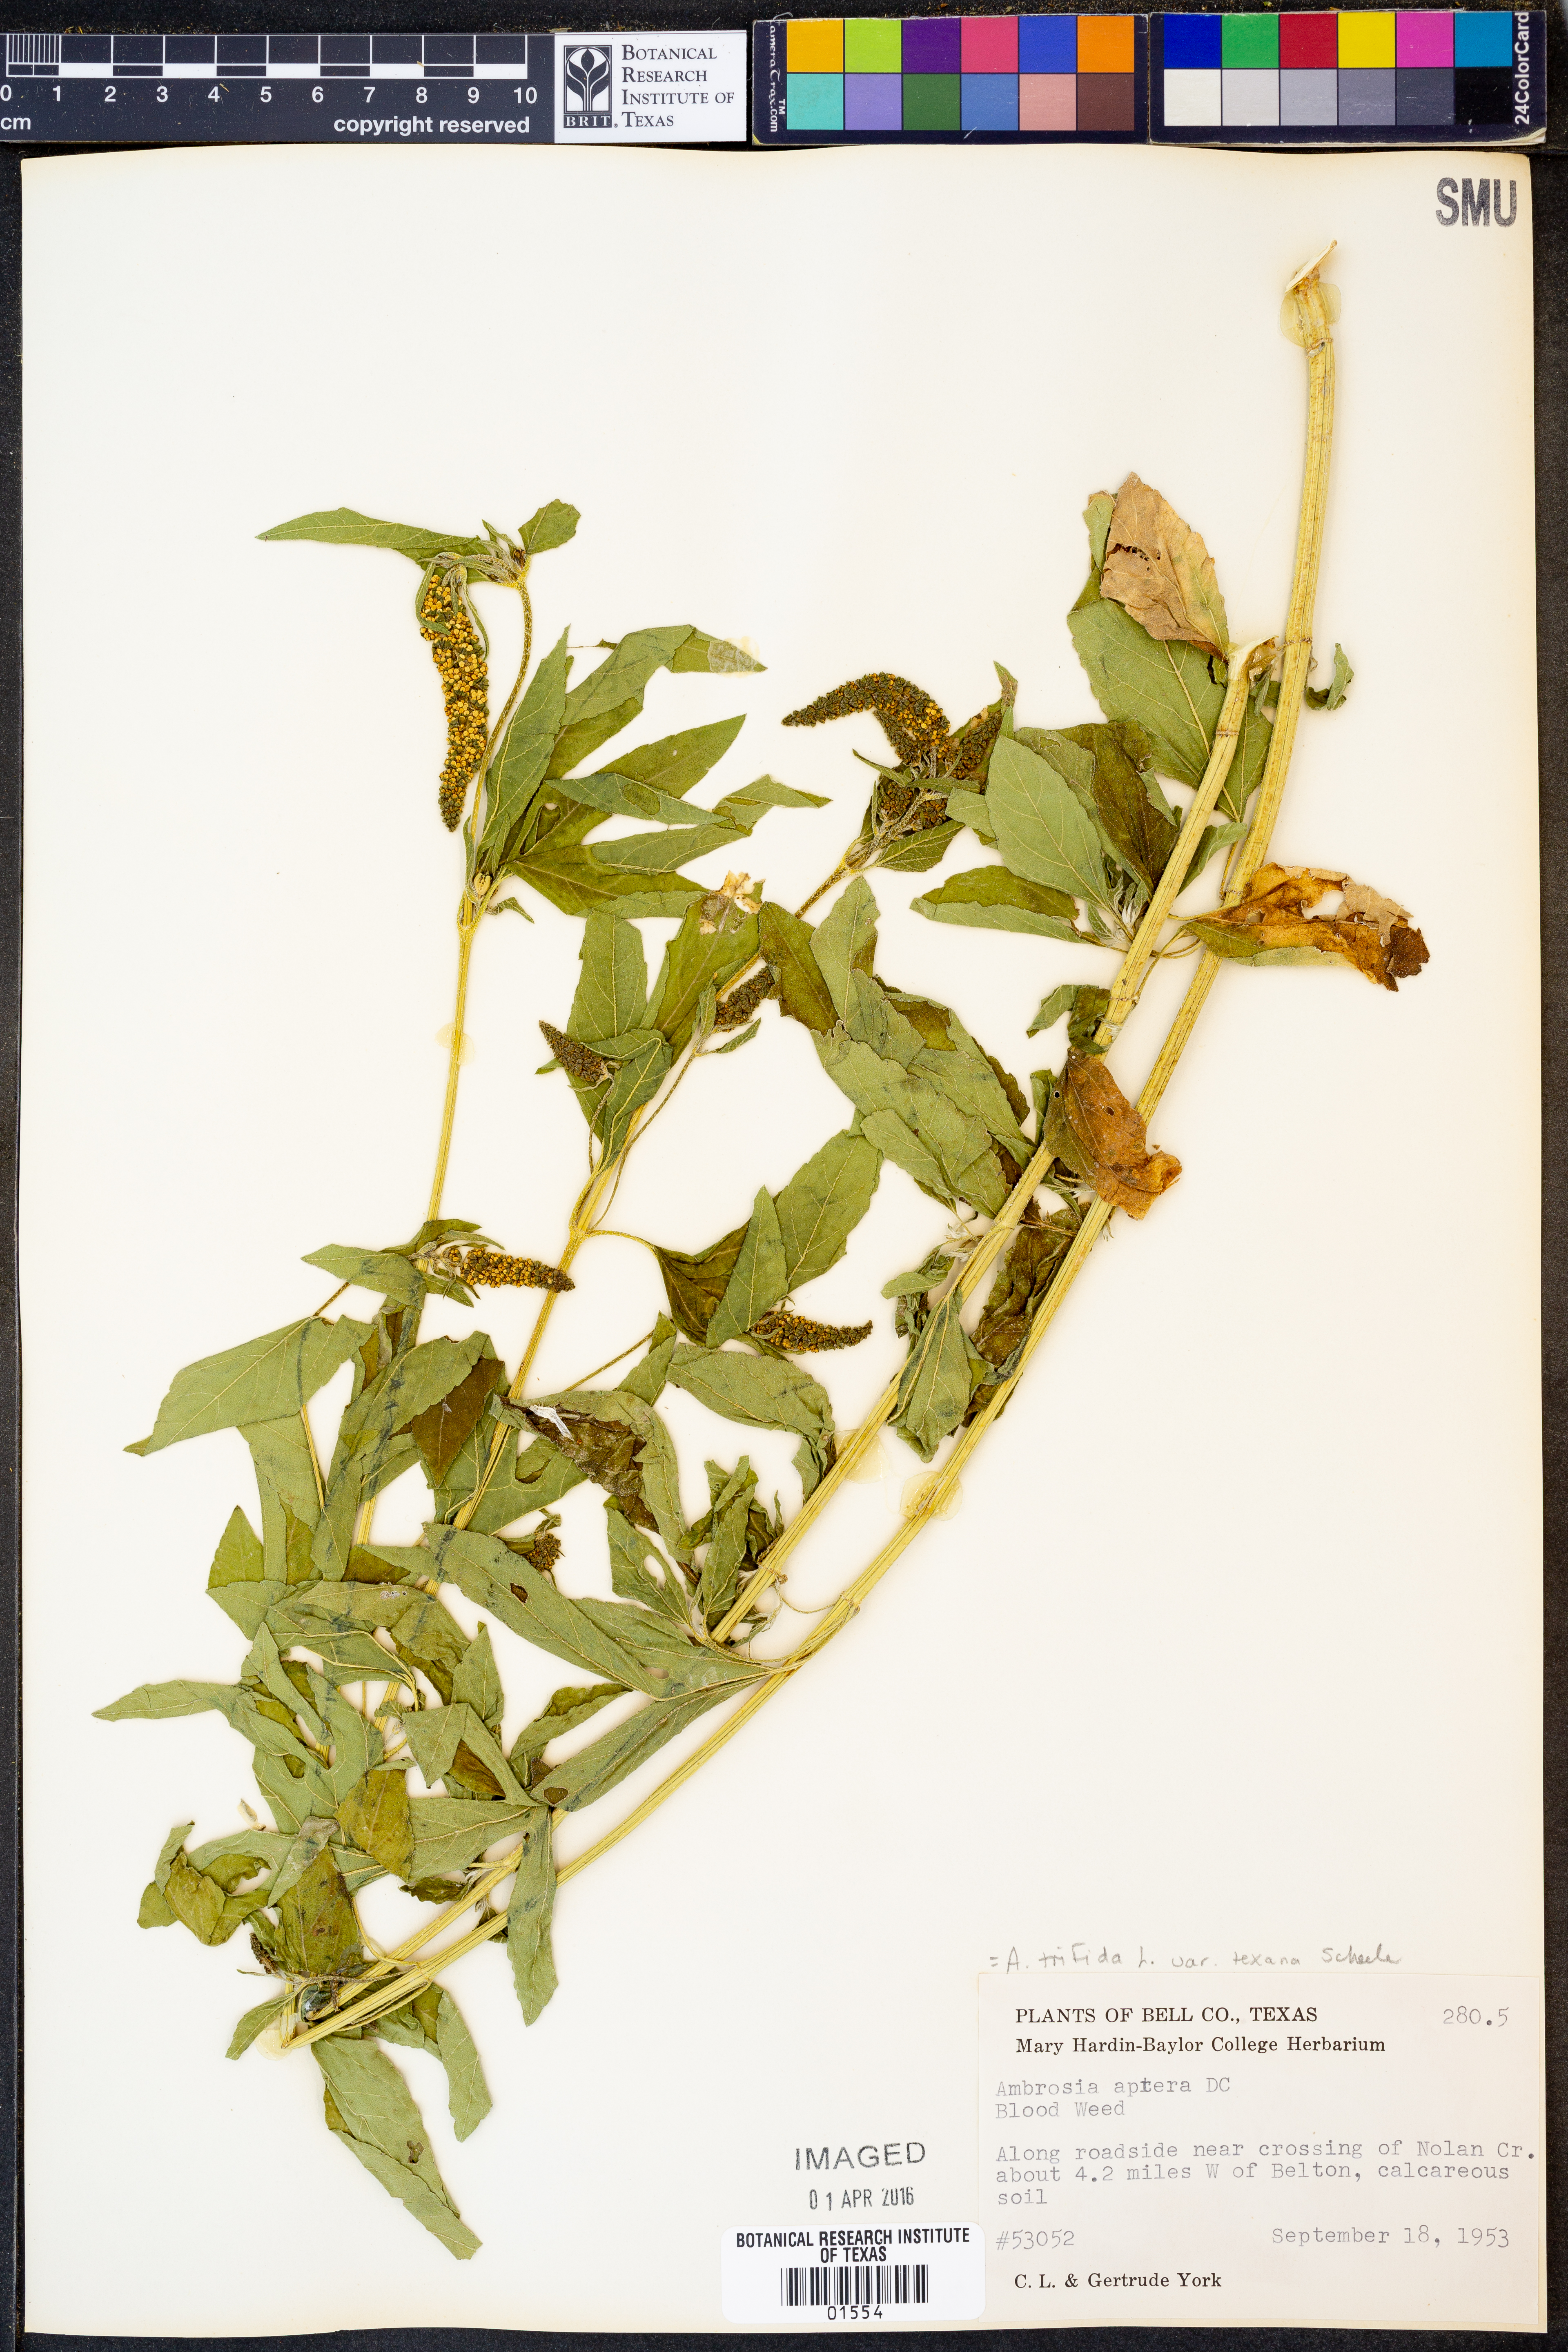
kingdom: Plantae
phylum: Tracheophyta
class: Magnoliopsida
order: Asterales
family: Asteraceae
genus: Ambrosia
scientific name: Ambrosia trifida
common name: Giant ragweed
